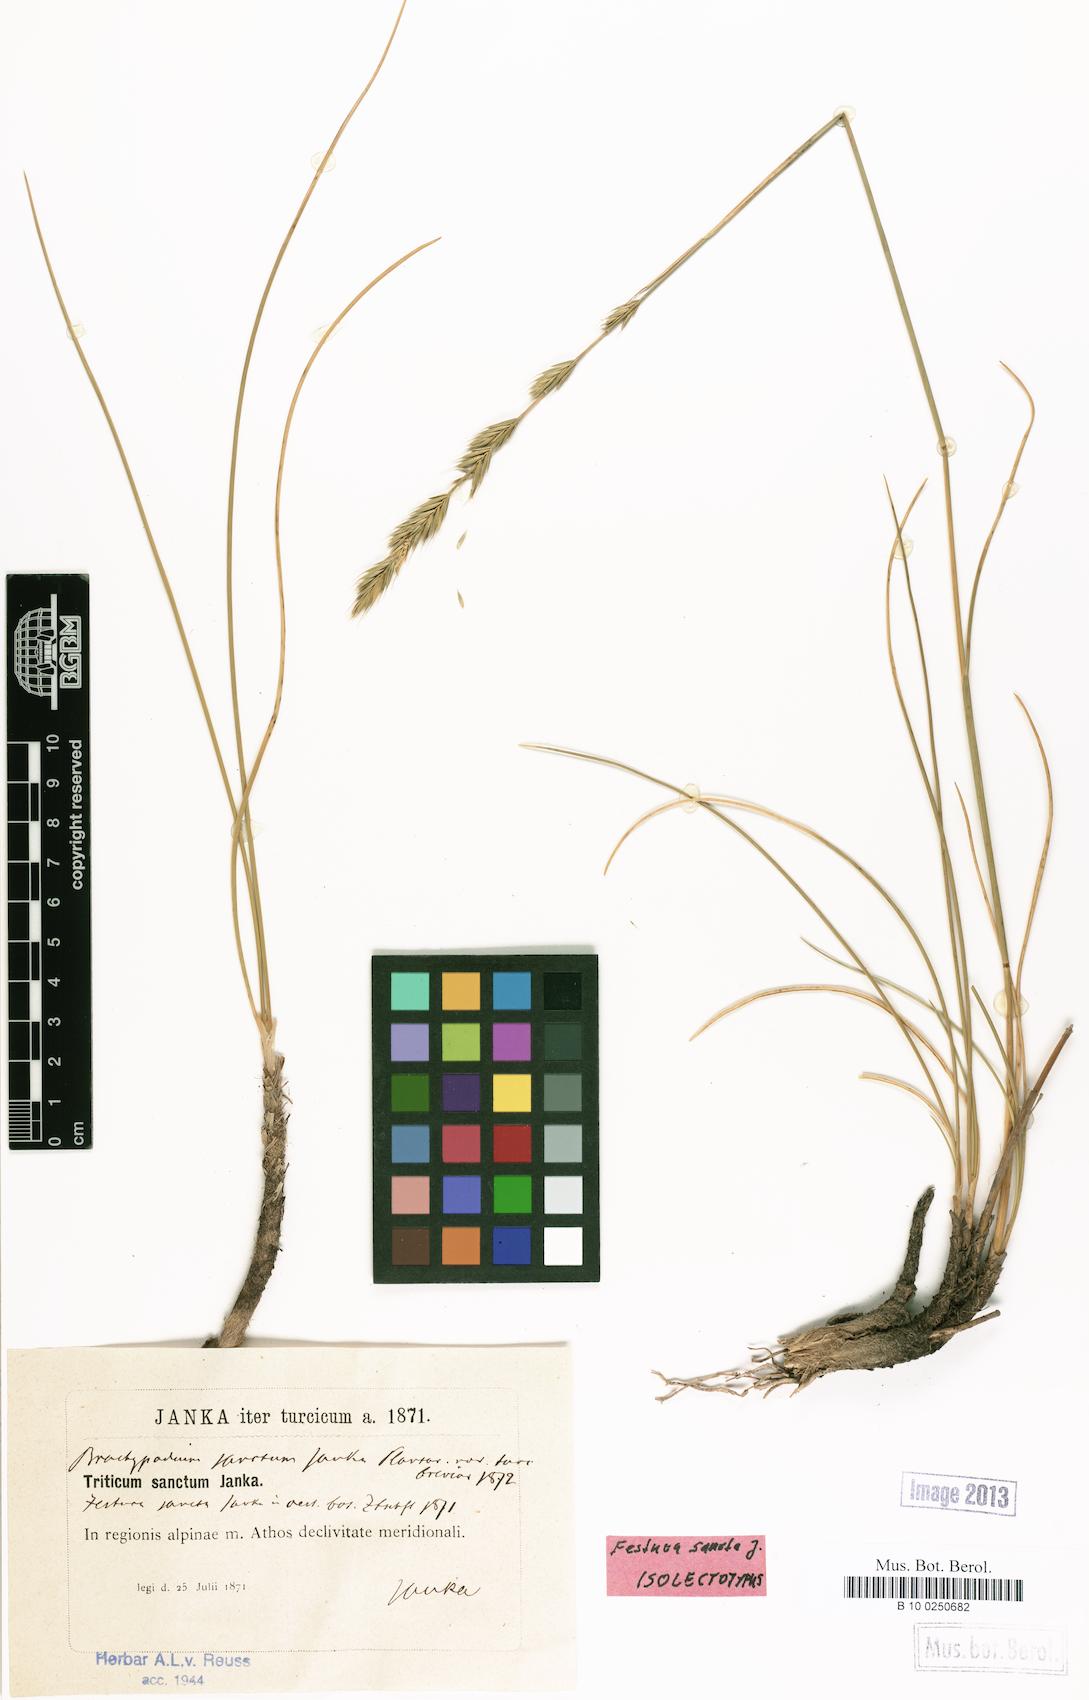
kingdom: Plantae
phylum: Tracheophyta
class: Liliopsida
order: Poales
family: Poaceae
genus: Peridictyon
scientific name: Peridictyon sanctum
